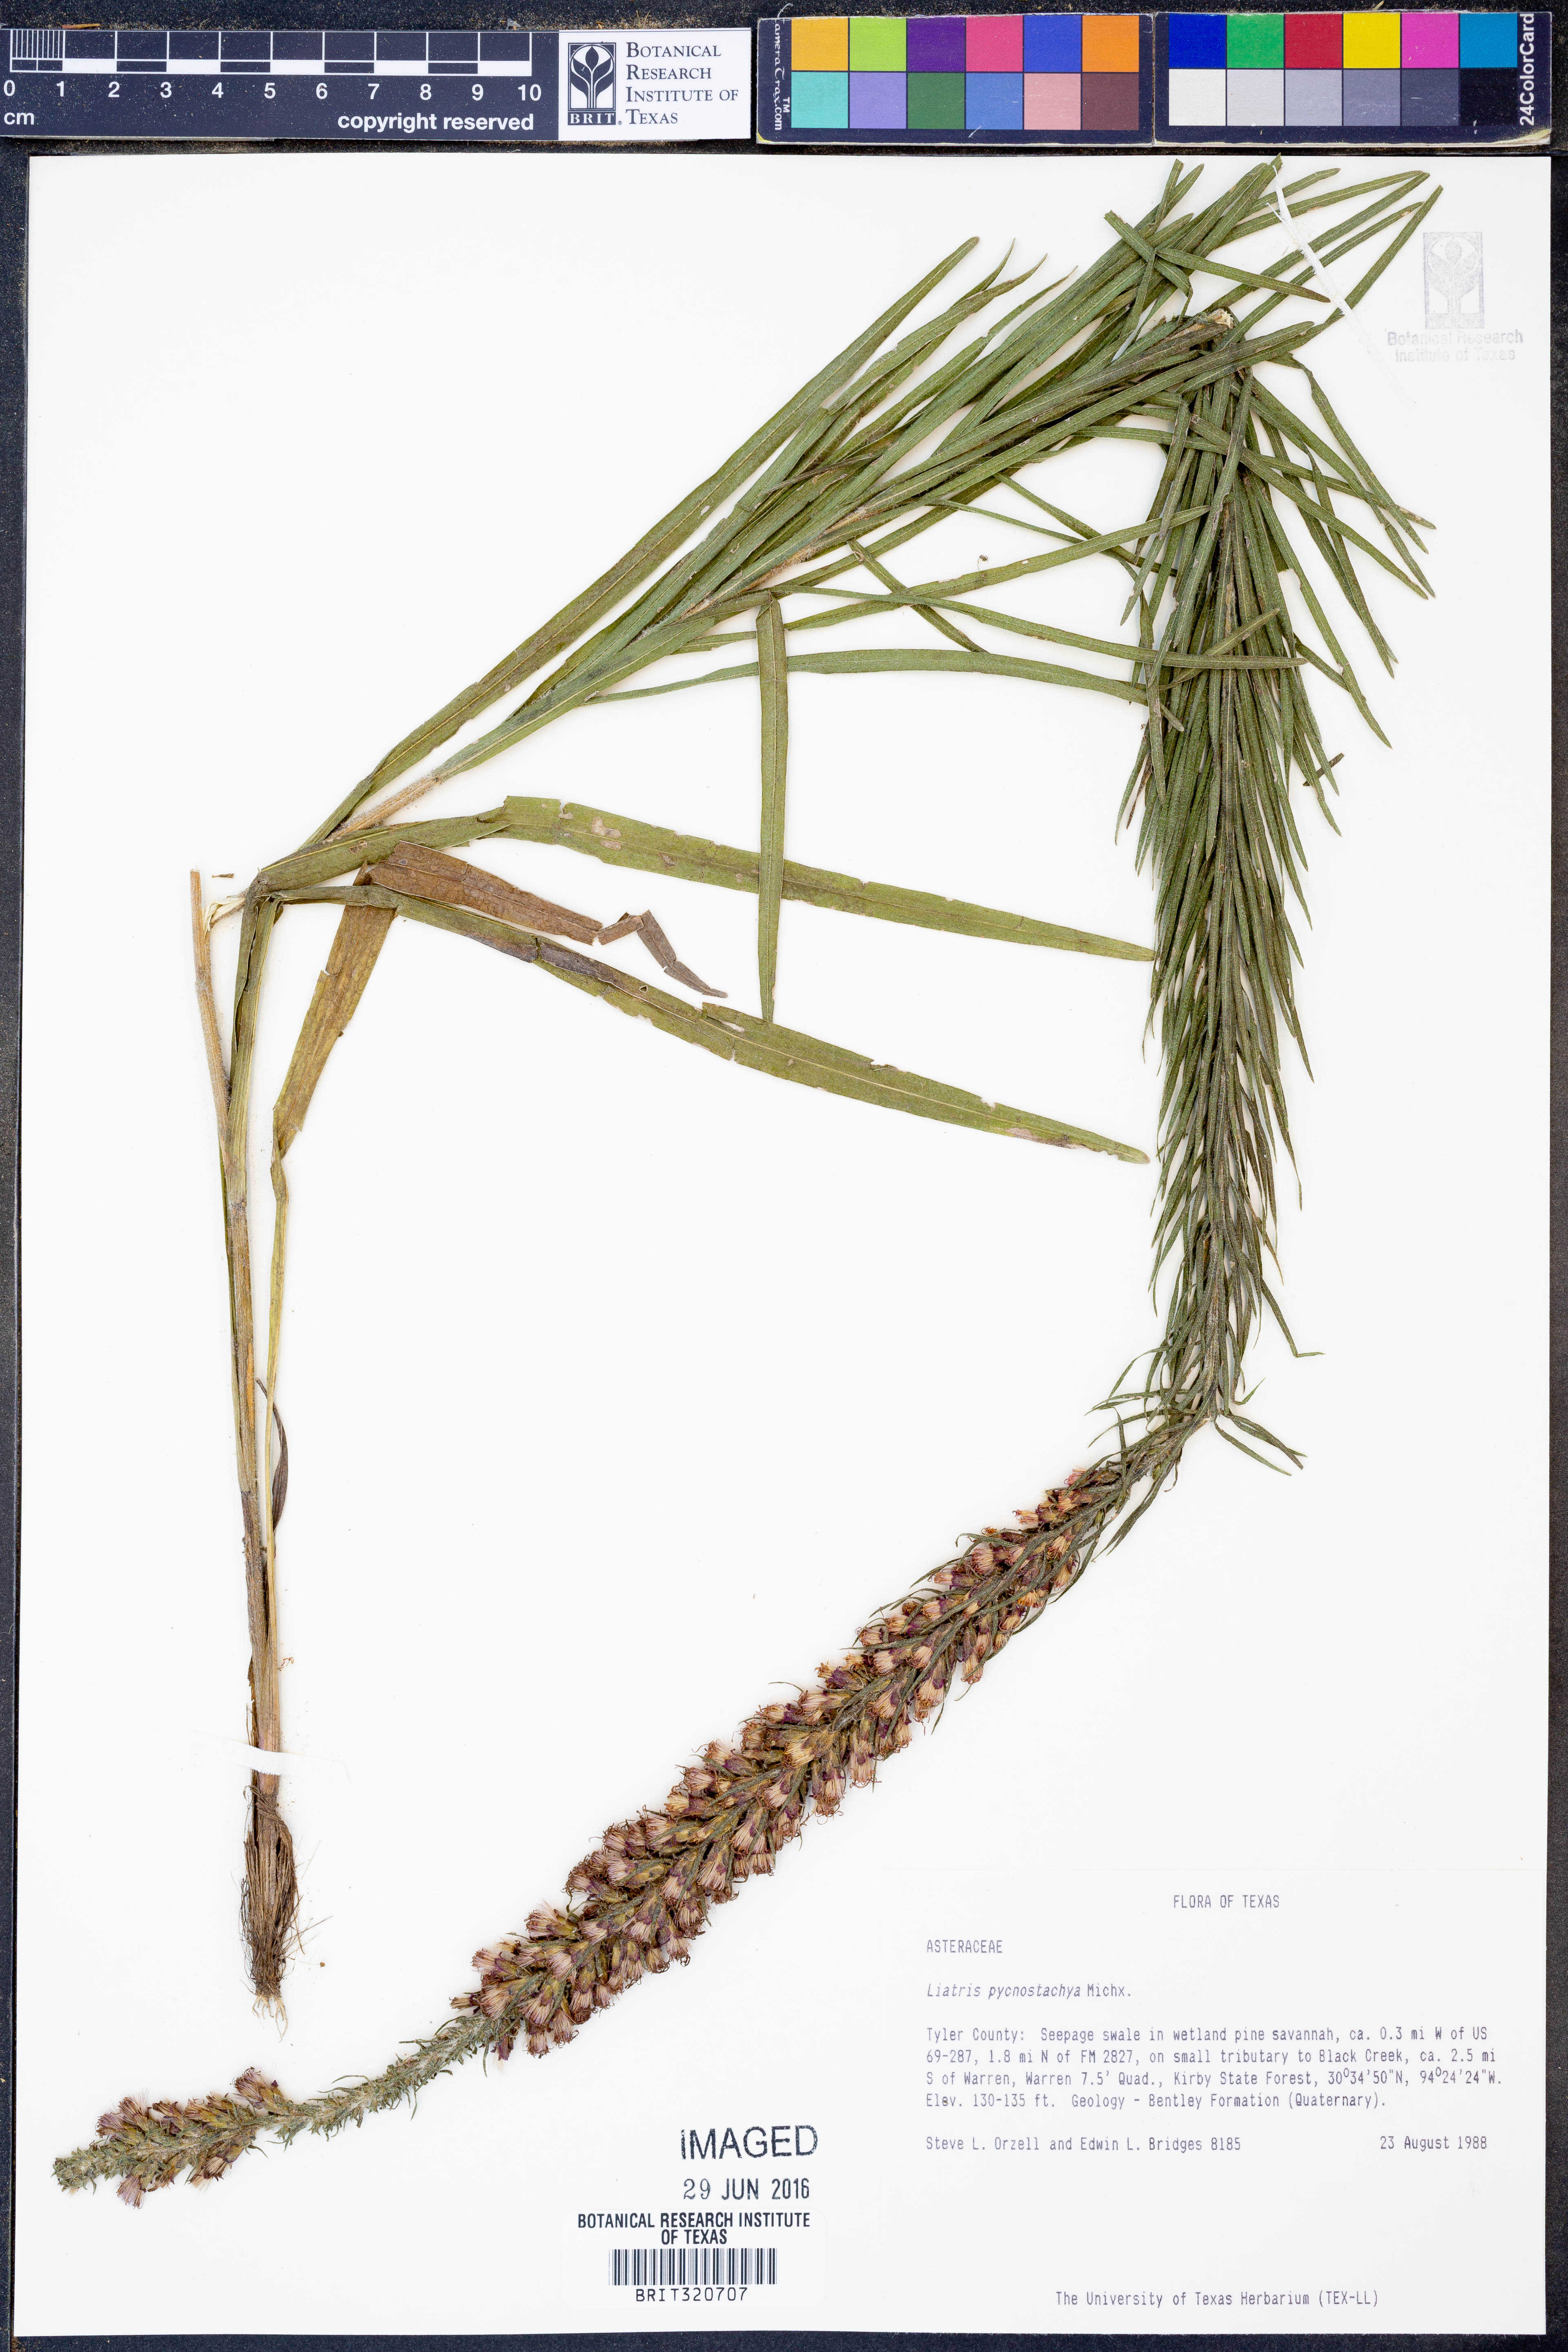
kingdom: Plantae
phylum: Tracheophyta
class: Magnoliopsida
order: Asterales
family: Asteraceae
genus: Liatris
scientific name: Liatris pycnostachya
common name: Cattail gayfeather
